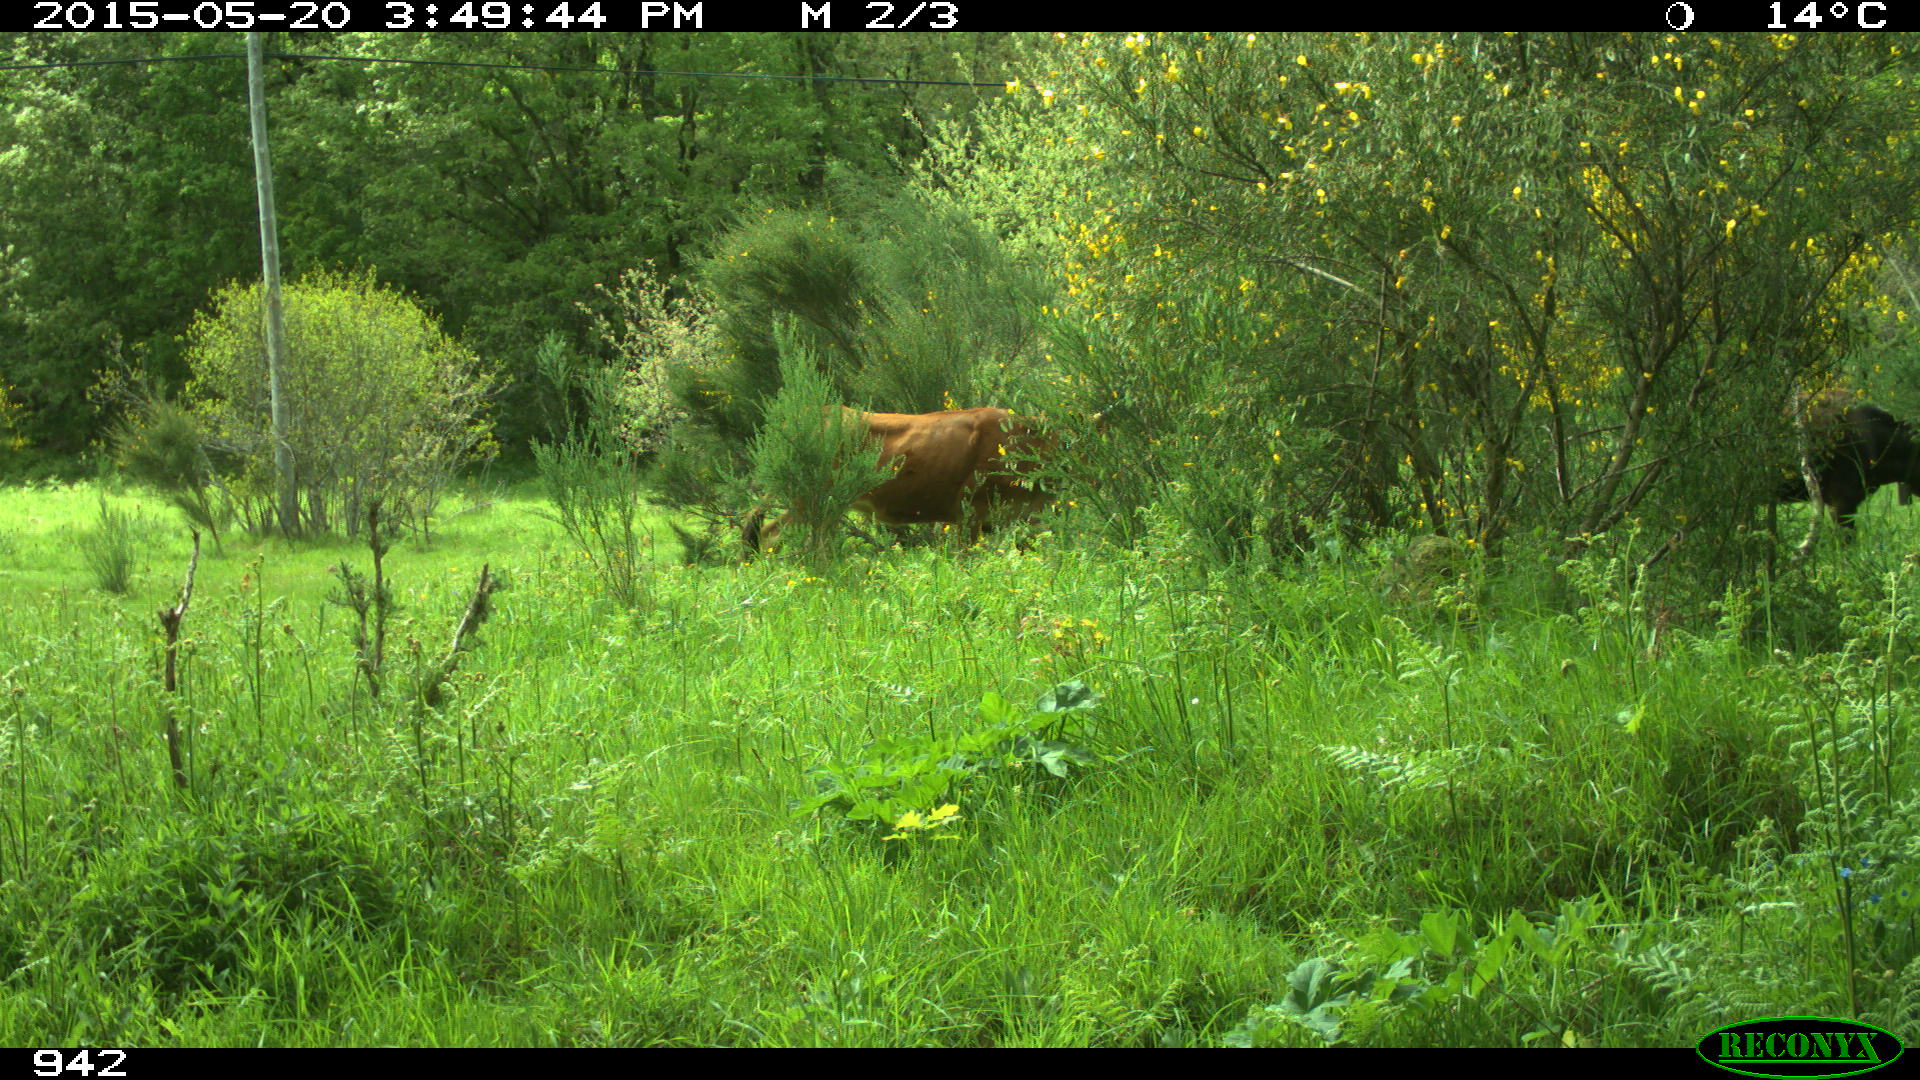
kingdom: Animalia
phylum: Chordata
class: Mammalia
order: Artiodactyla
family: Bovidae
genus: Bos
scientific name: Bos taurus
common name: Domesticated cattle
